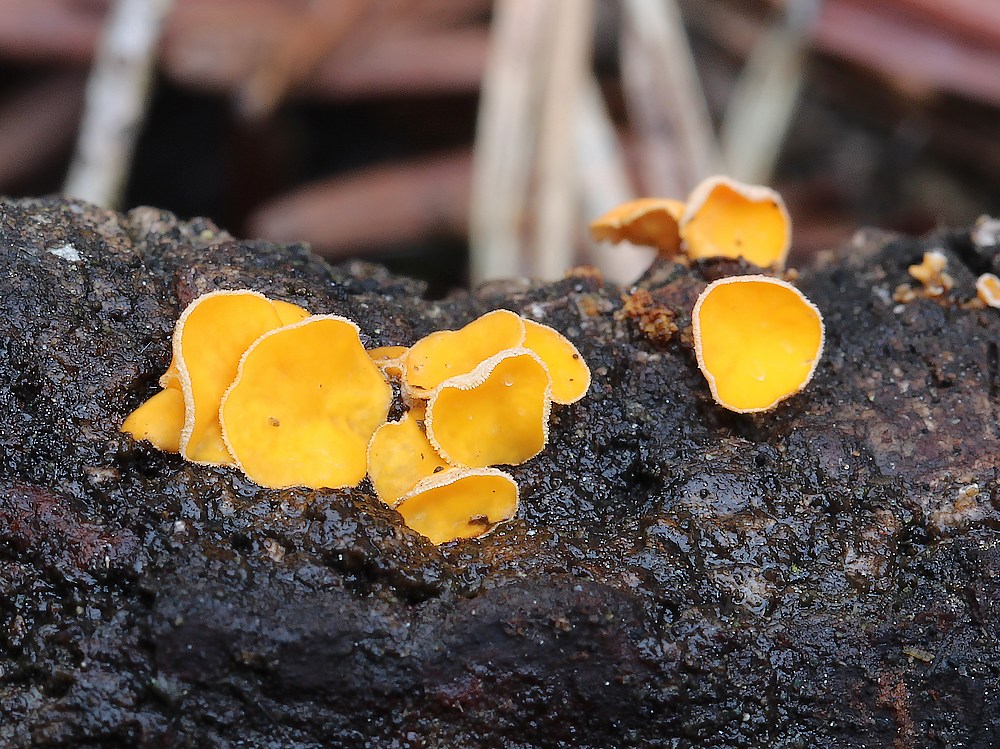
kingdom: Fungi
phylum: Ascomycota
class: Leotiomycetes
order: Helotiales
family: Lachnaceae
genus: Lachnellula
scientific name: Lachnellula subtilissima
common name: gran-frynseskive
